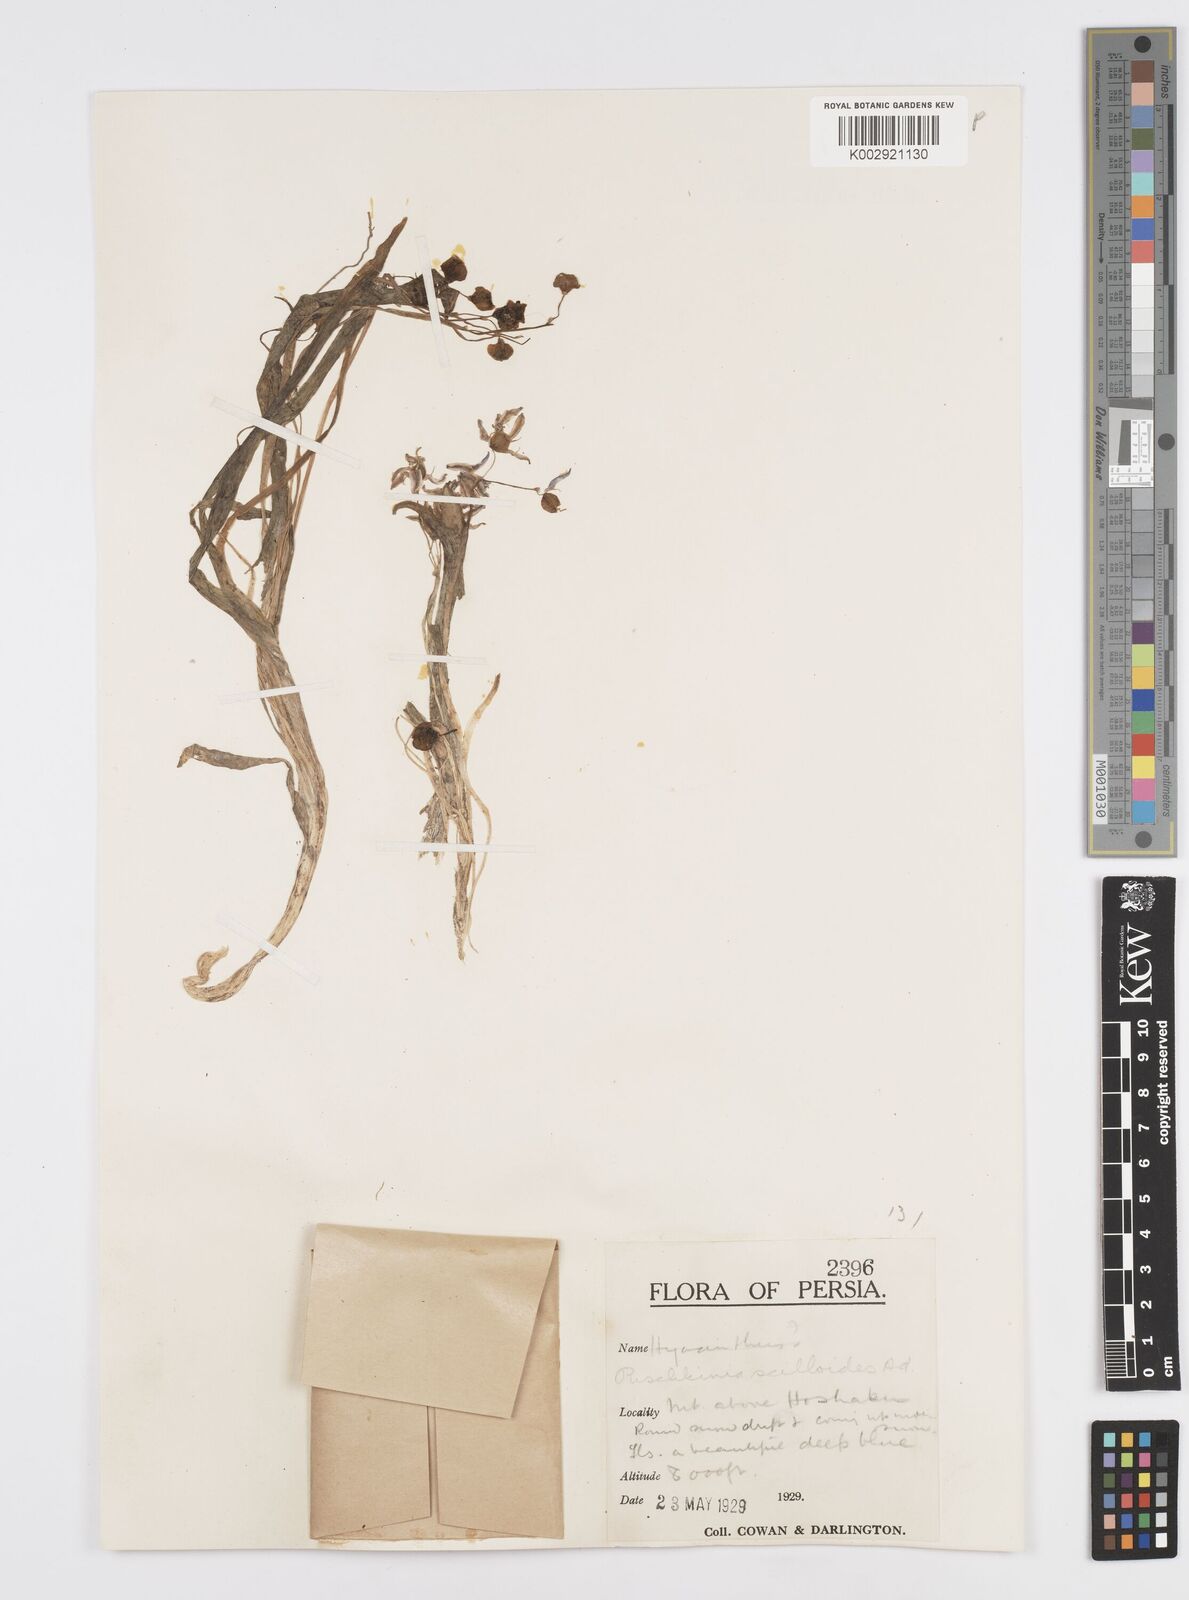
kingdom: Plantae
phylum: Tracheophyta
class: Liliopsida
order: Asparagales
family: Asparagaceae
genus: Puschkinia
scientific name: Puschkinia scilloides
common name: Striped squill
